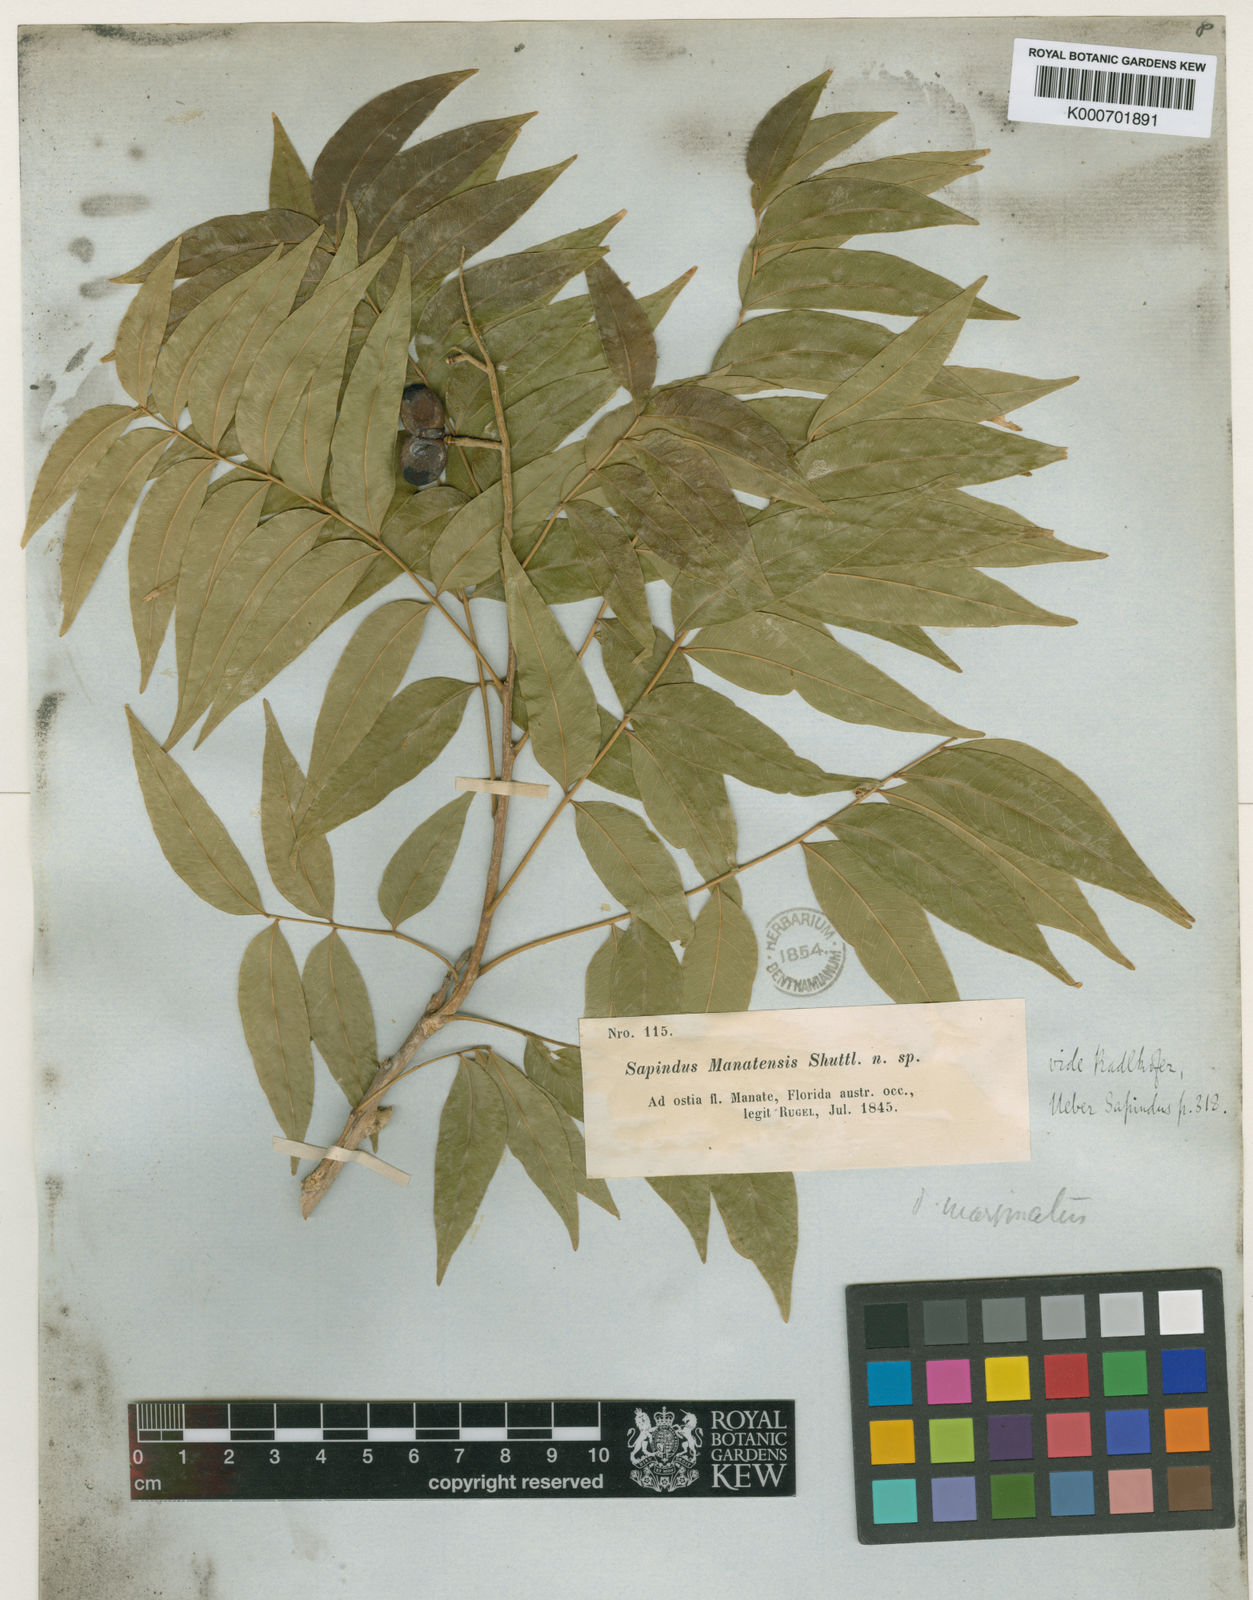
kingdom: Plantae
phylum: Tracheophyta
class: Magnoliopsida
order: Sapindales
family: Sapindaceae
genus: Sapindus
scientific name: Sapindus
